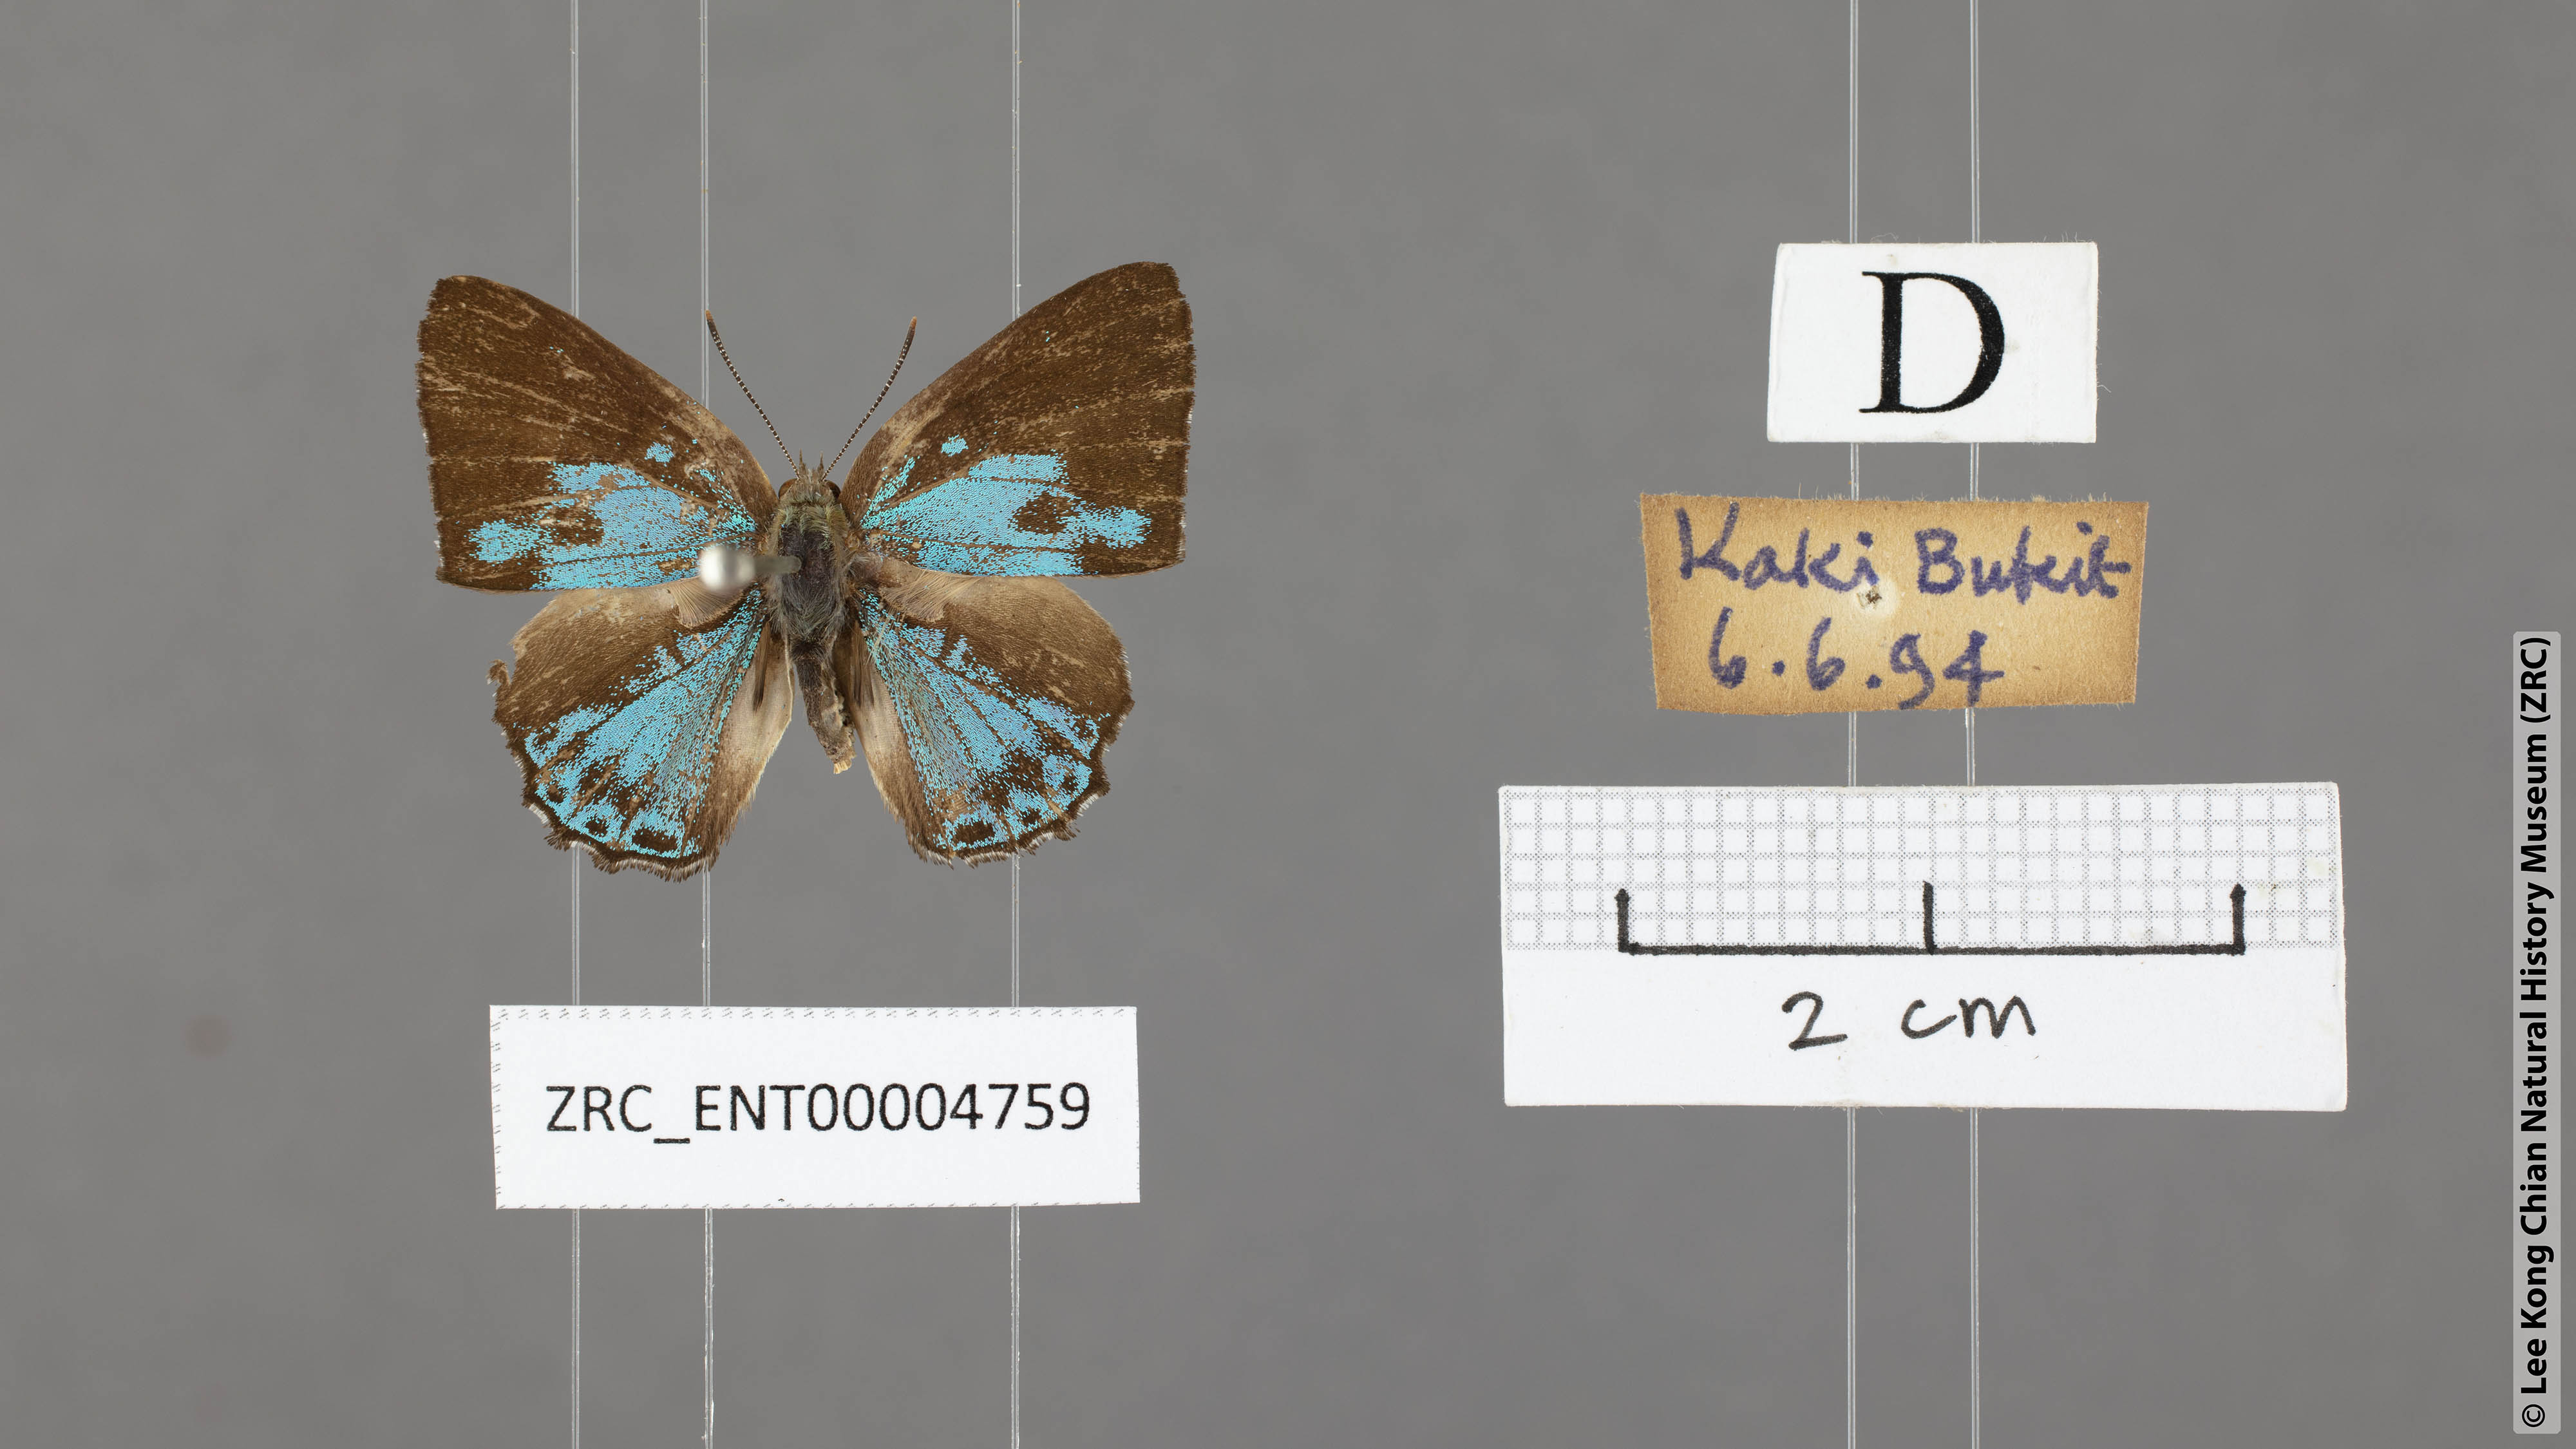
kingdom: Animalia
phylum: Arthropoda
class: Insecta
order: Lepidoptera
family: Lycaenidae
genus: Simiskina
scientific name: Simiskina maina
